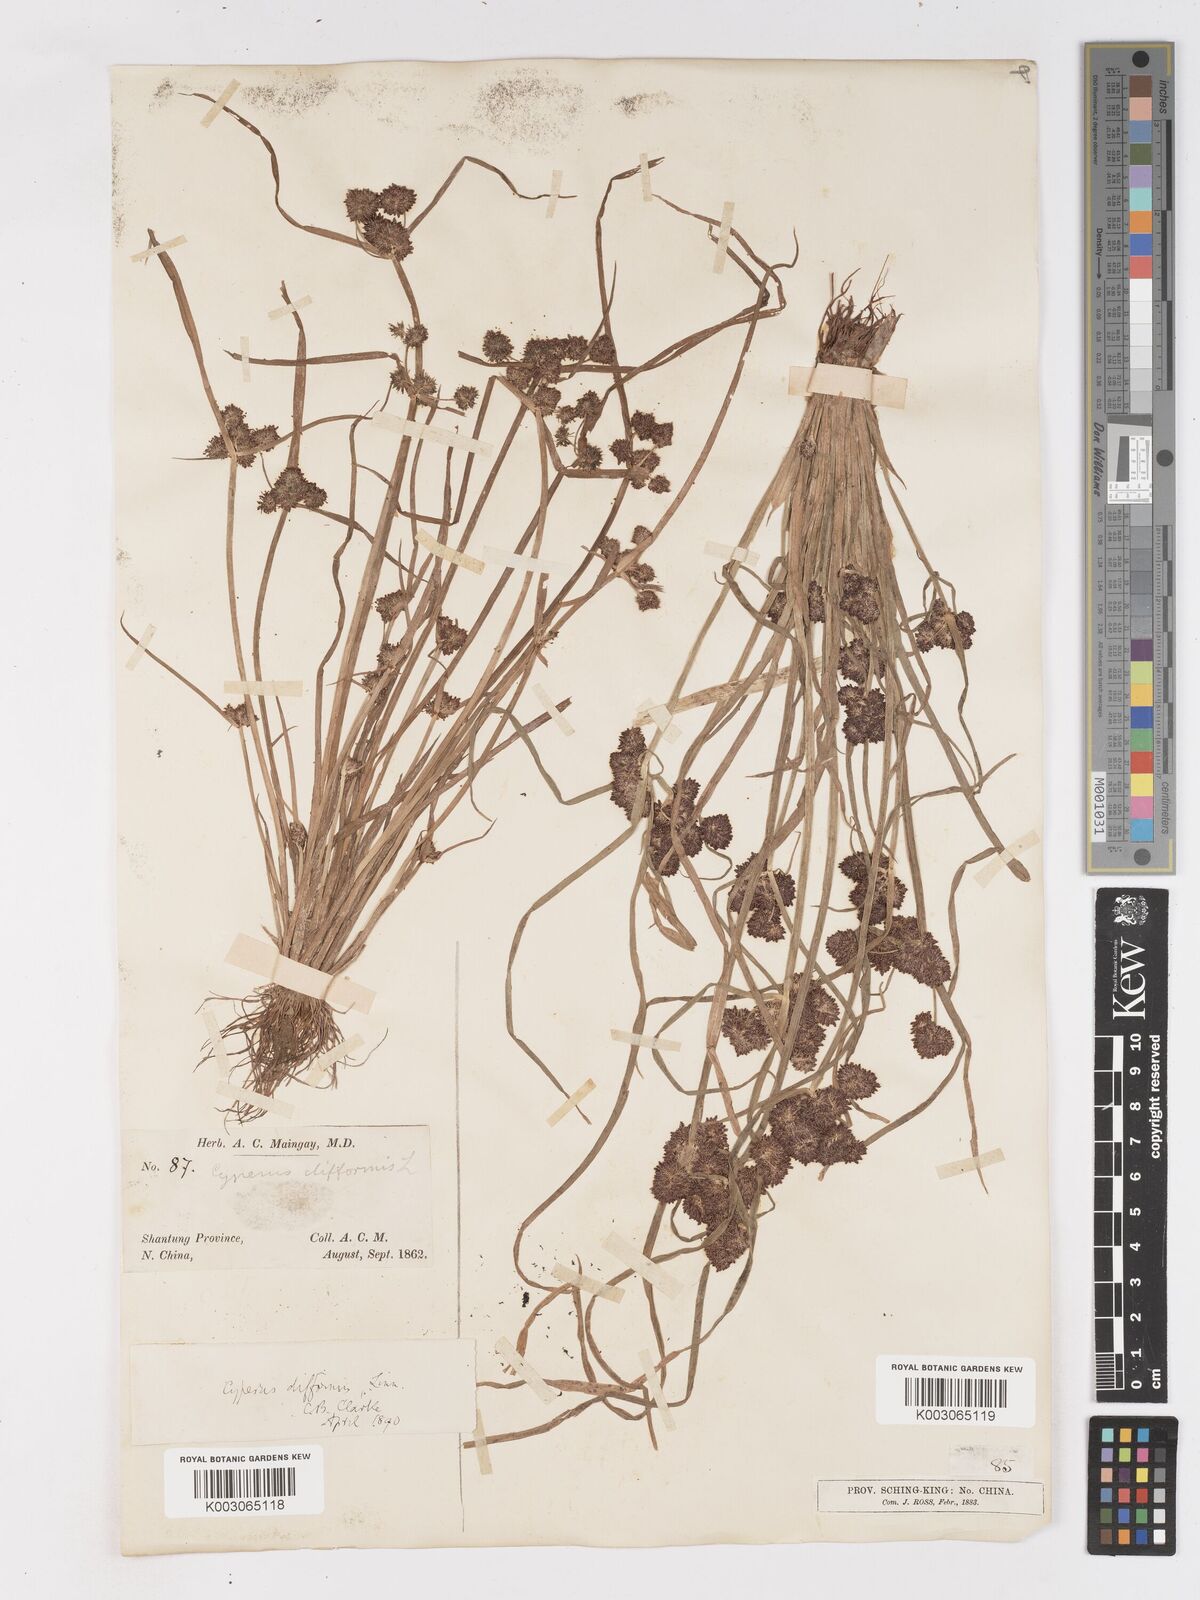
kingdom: Plantae
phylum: Tracheophyta
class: Liliopsida
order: Poales
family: Cyperaceae
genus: Cyperus
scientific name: Cyperus difformis
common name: Variable flatsedge
